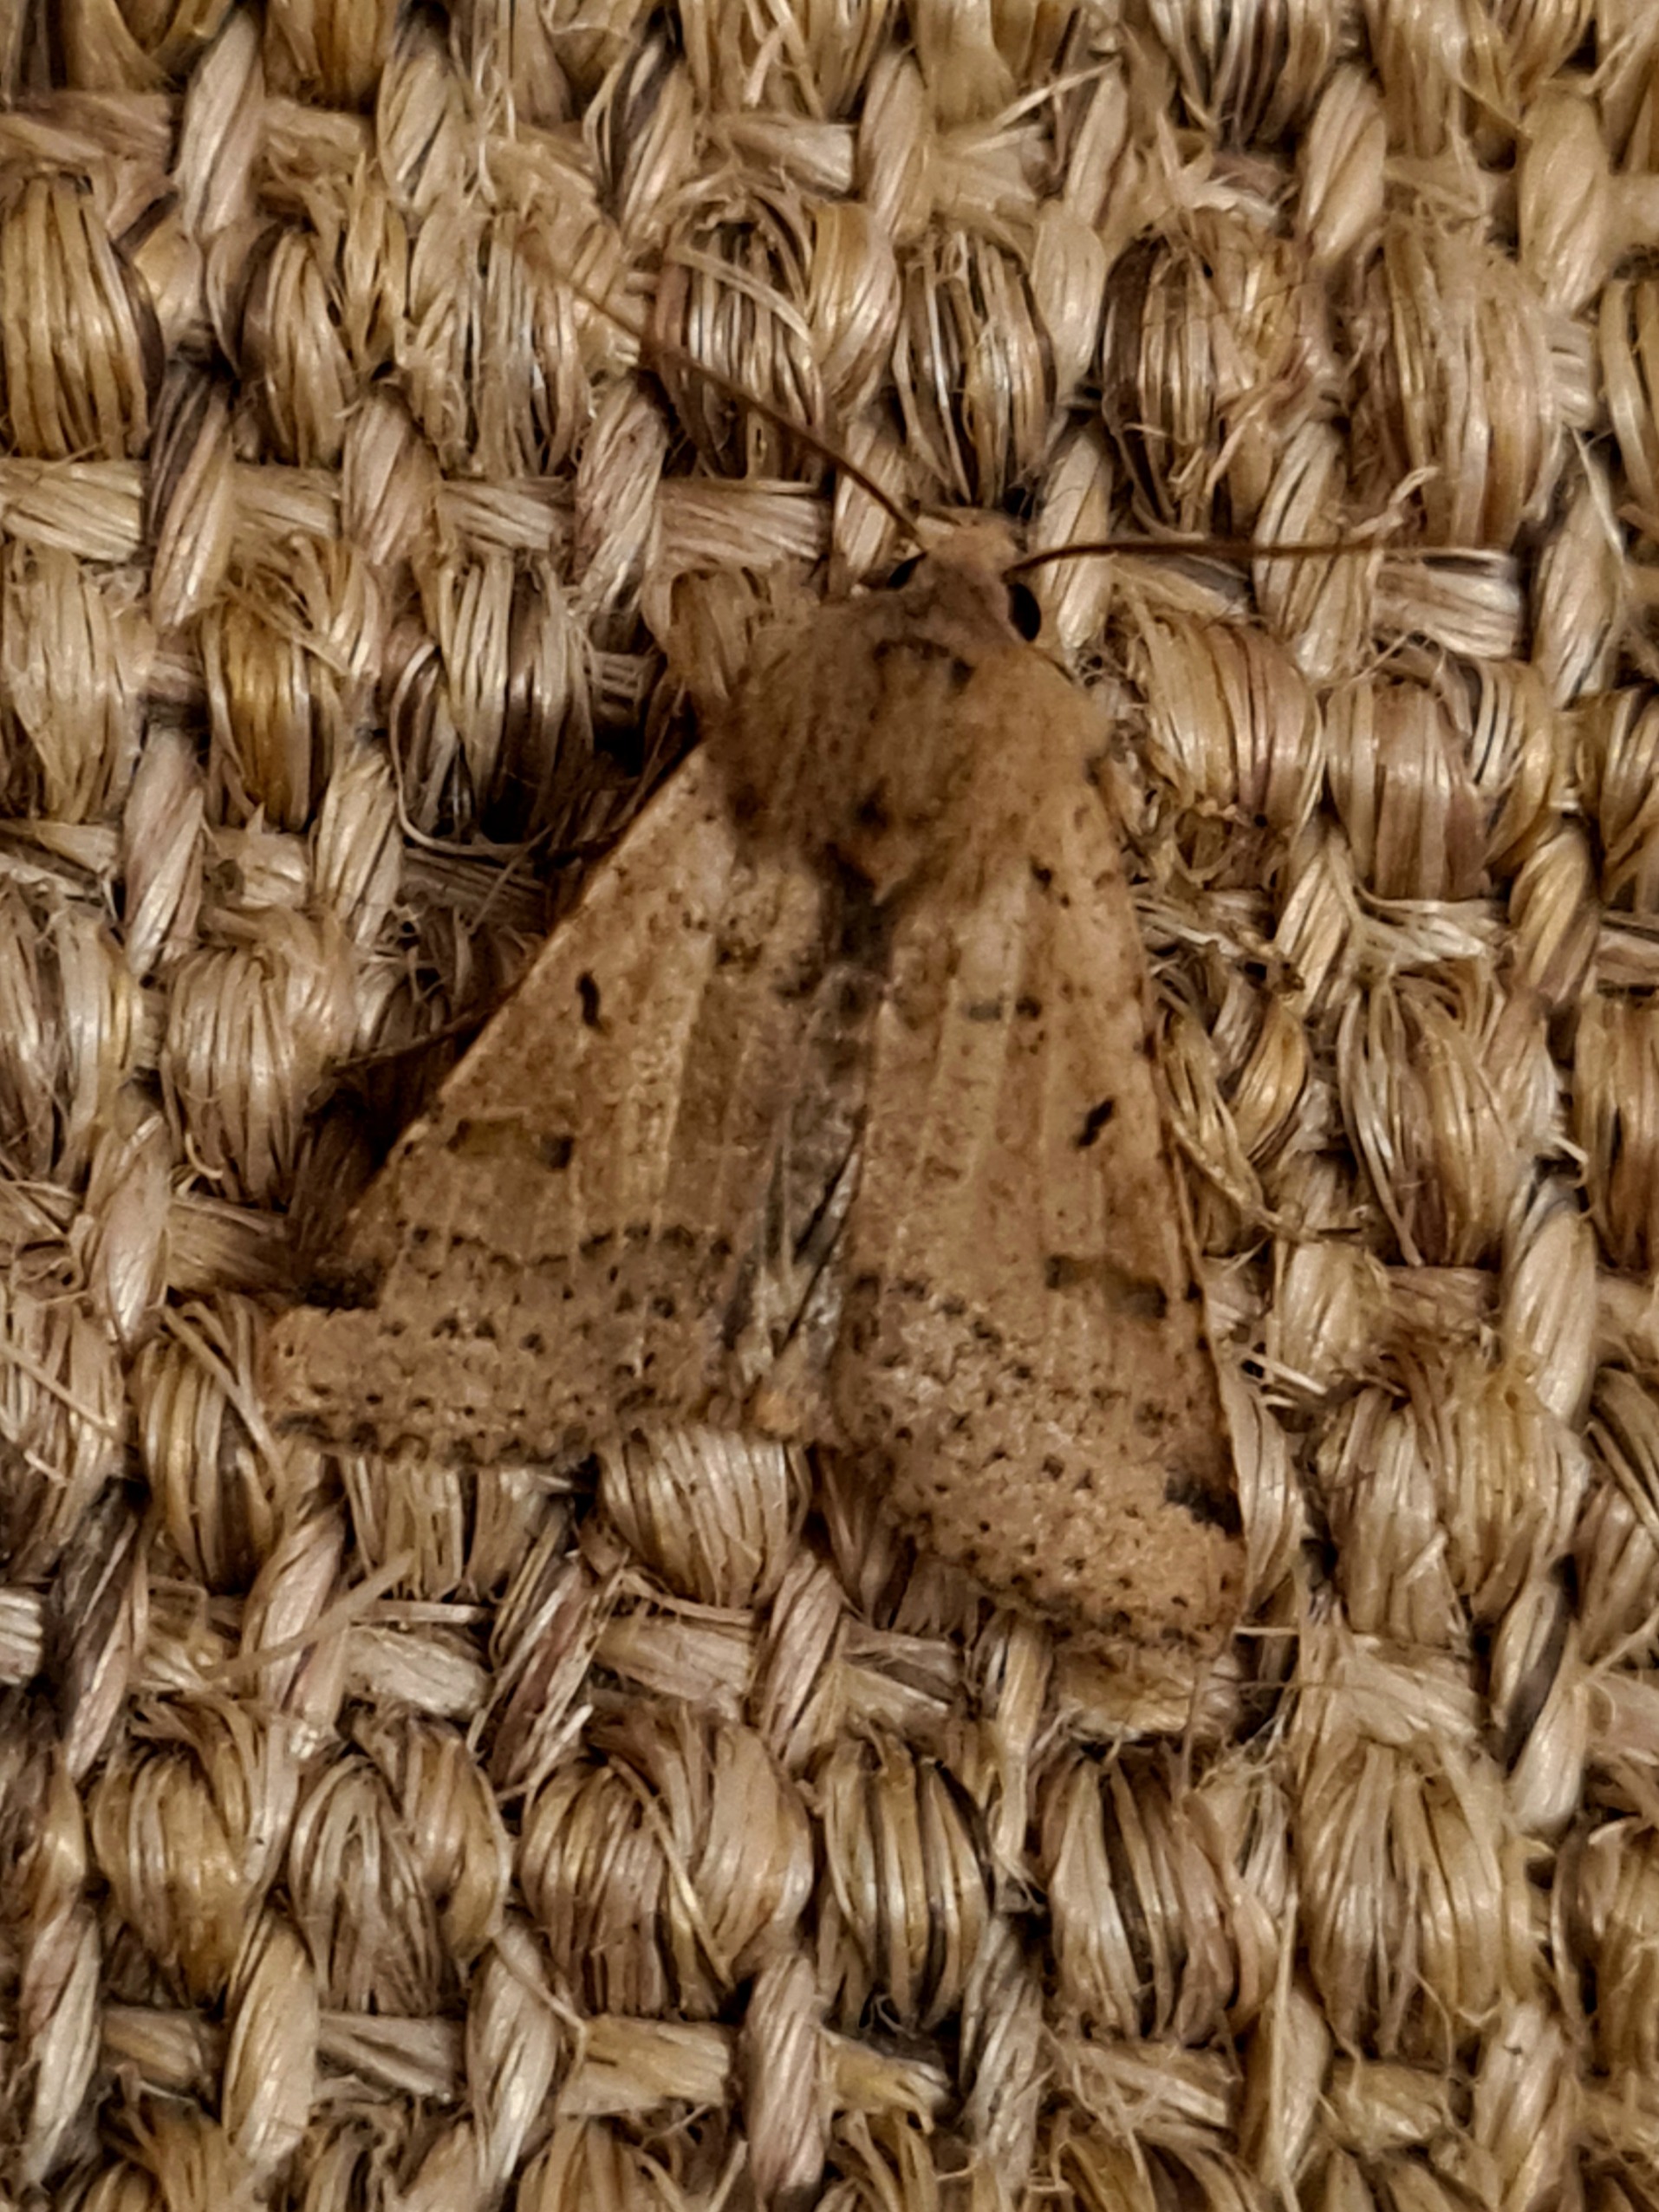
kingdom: Animalia
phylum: Arthropoda
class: Insecta
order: Lepidoptera
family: Noctuidae
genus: Agrochola
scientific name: Agrochola lychnidis
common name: Foranderlig jordfarveugle
